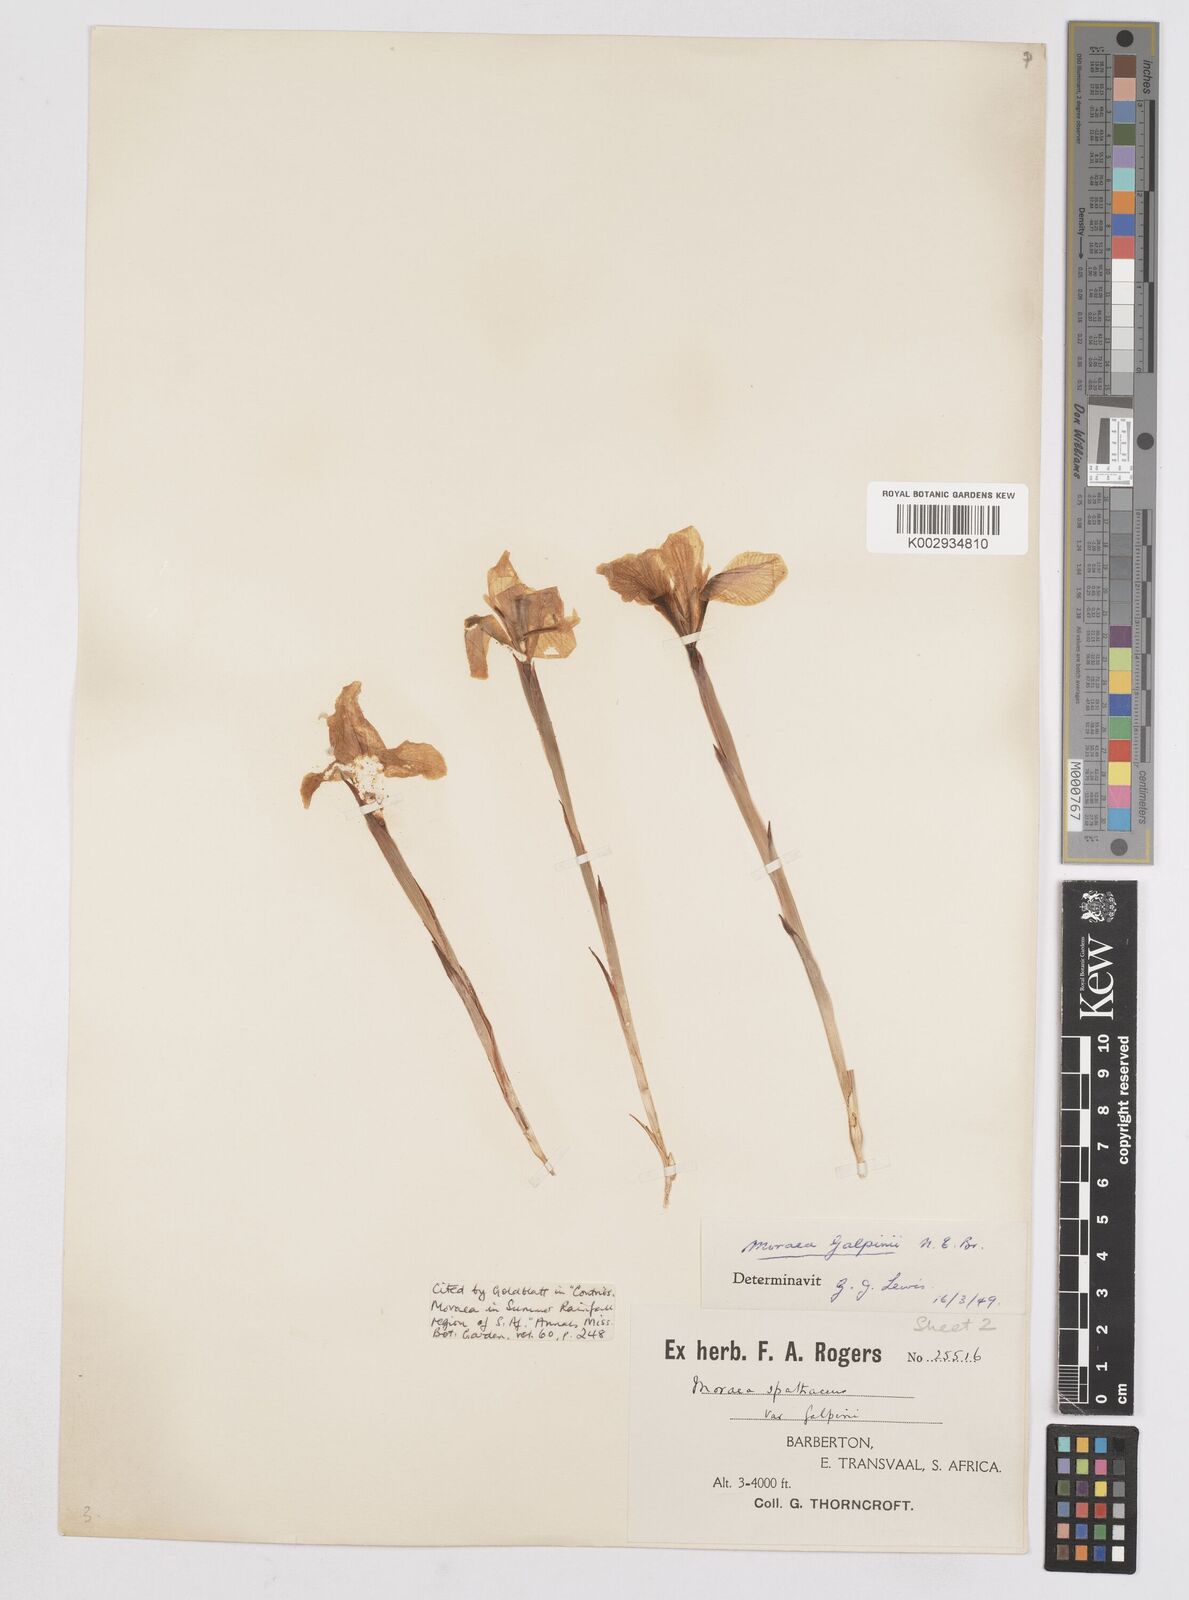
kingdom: Plantae
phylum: Tracheophyta
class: Liliopsida
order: Asparagales
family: Iridaceae
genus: Moraea
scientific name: Moraea galpinii
